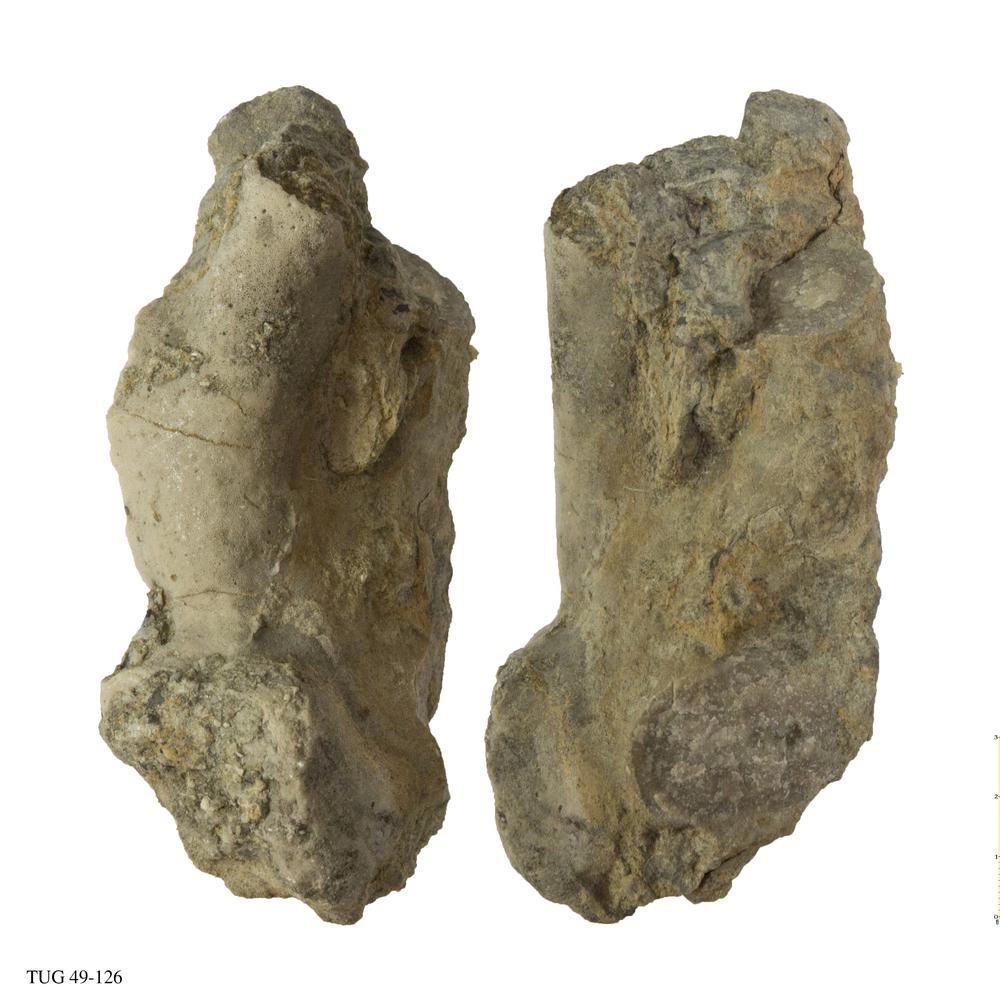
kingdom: Animalia
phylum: Bryozoa
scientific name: Bryozoa
